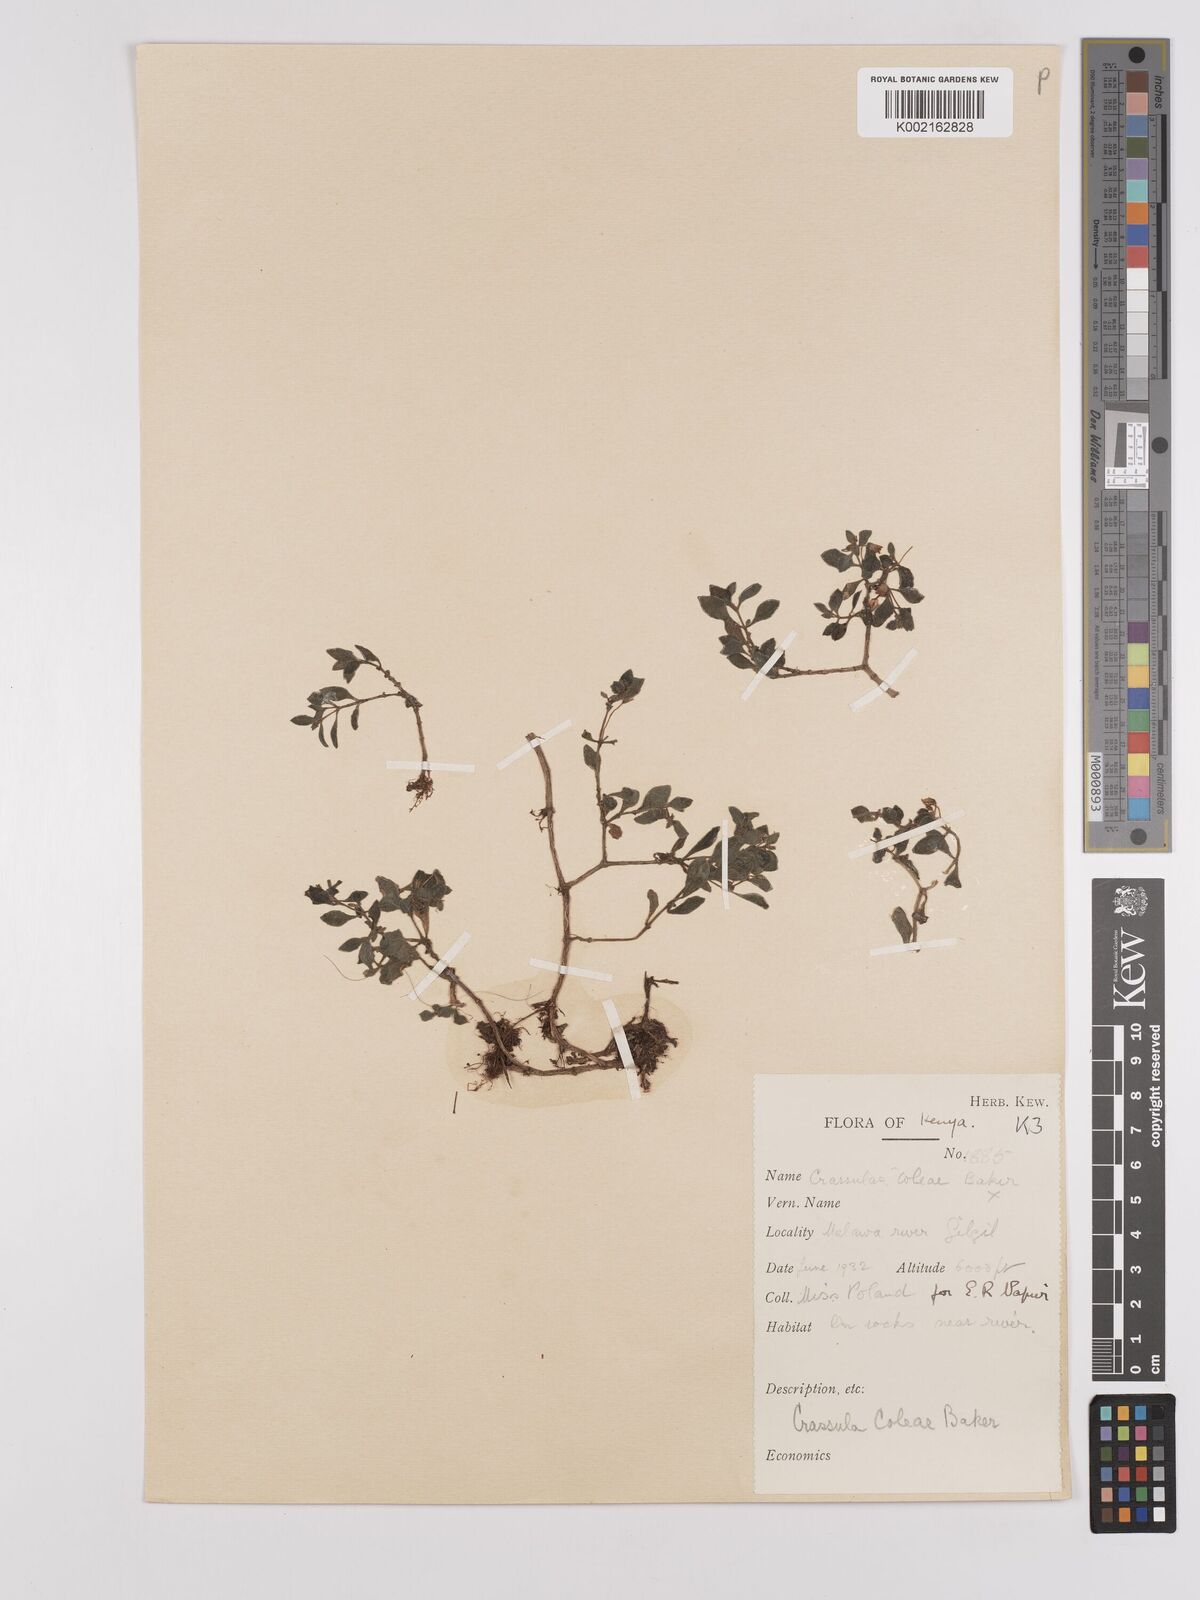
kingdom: Plantae
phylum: Tracheophyta
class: Magnoliopsida
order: Saxifragales
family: Crassulaceae
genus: Crassula
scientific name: Crassula volkensii
